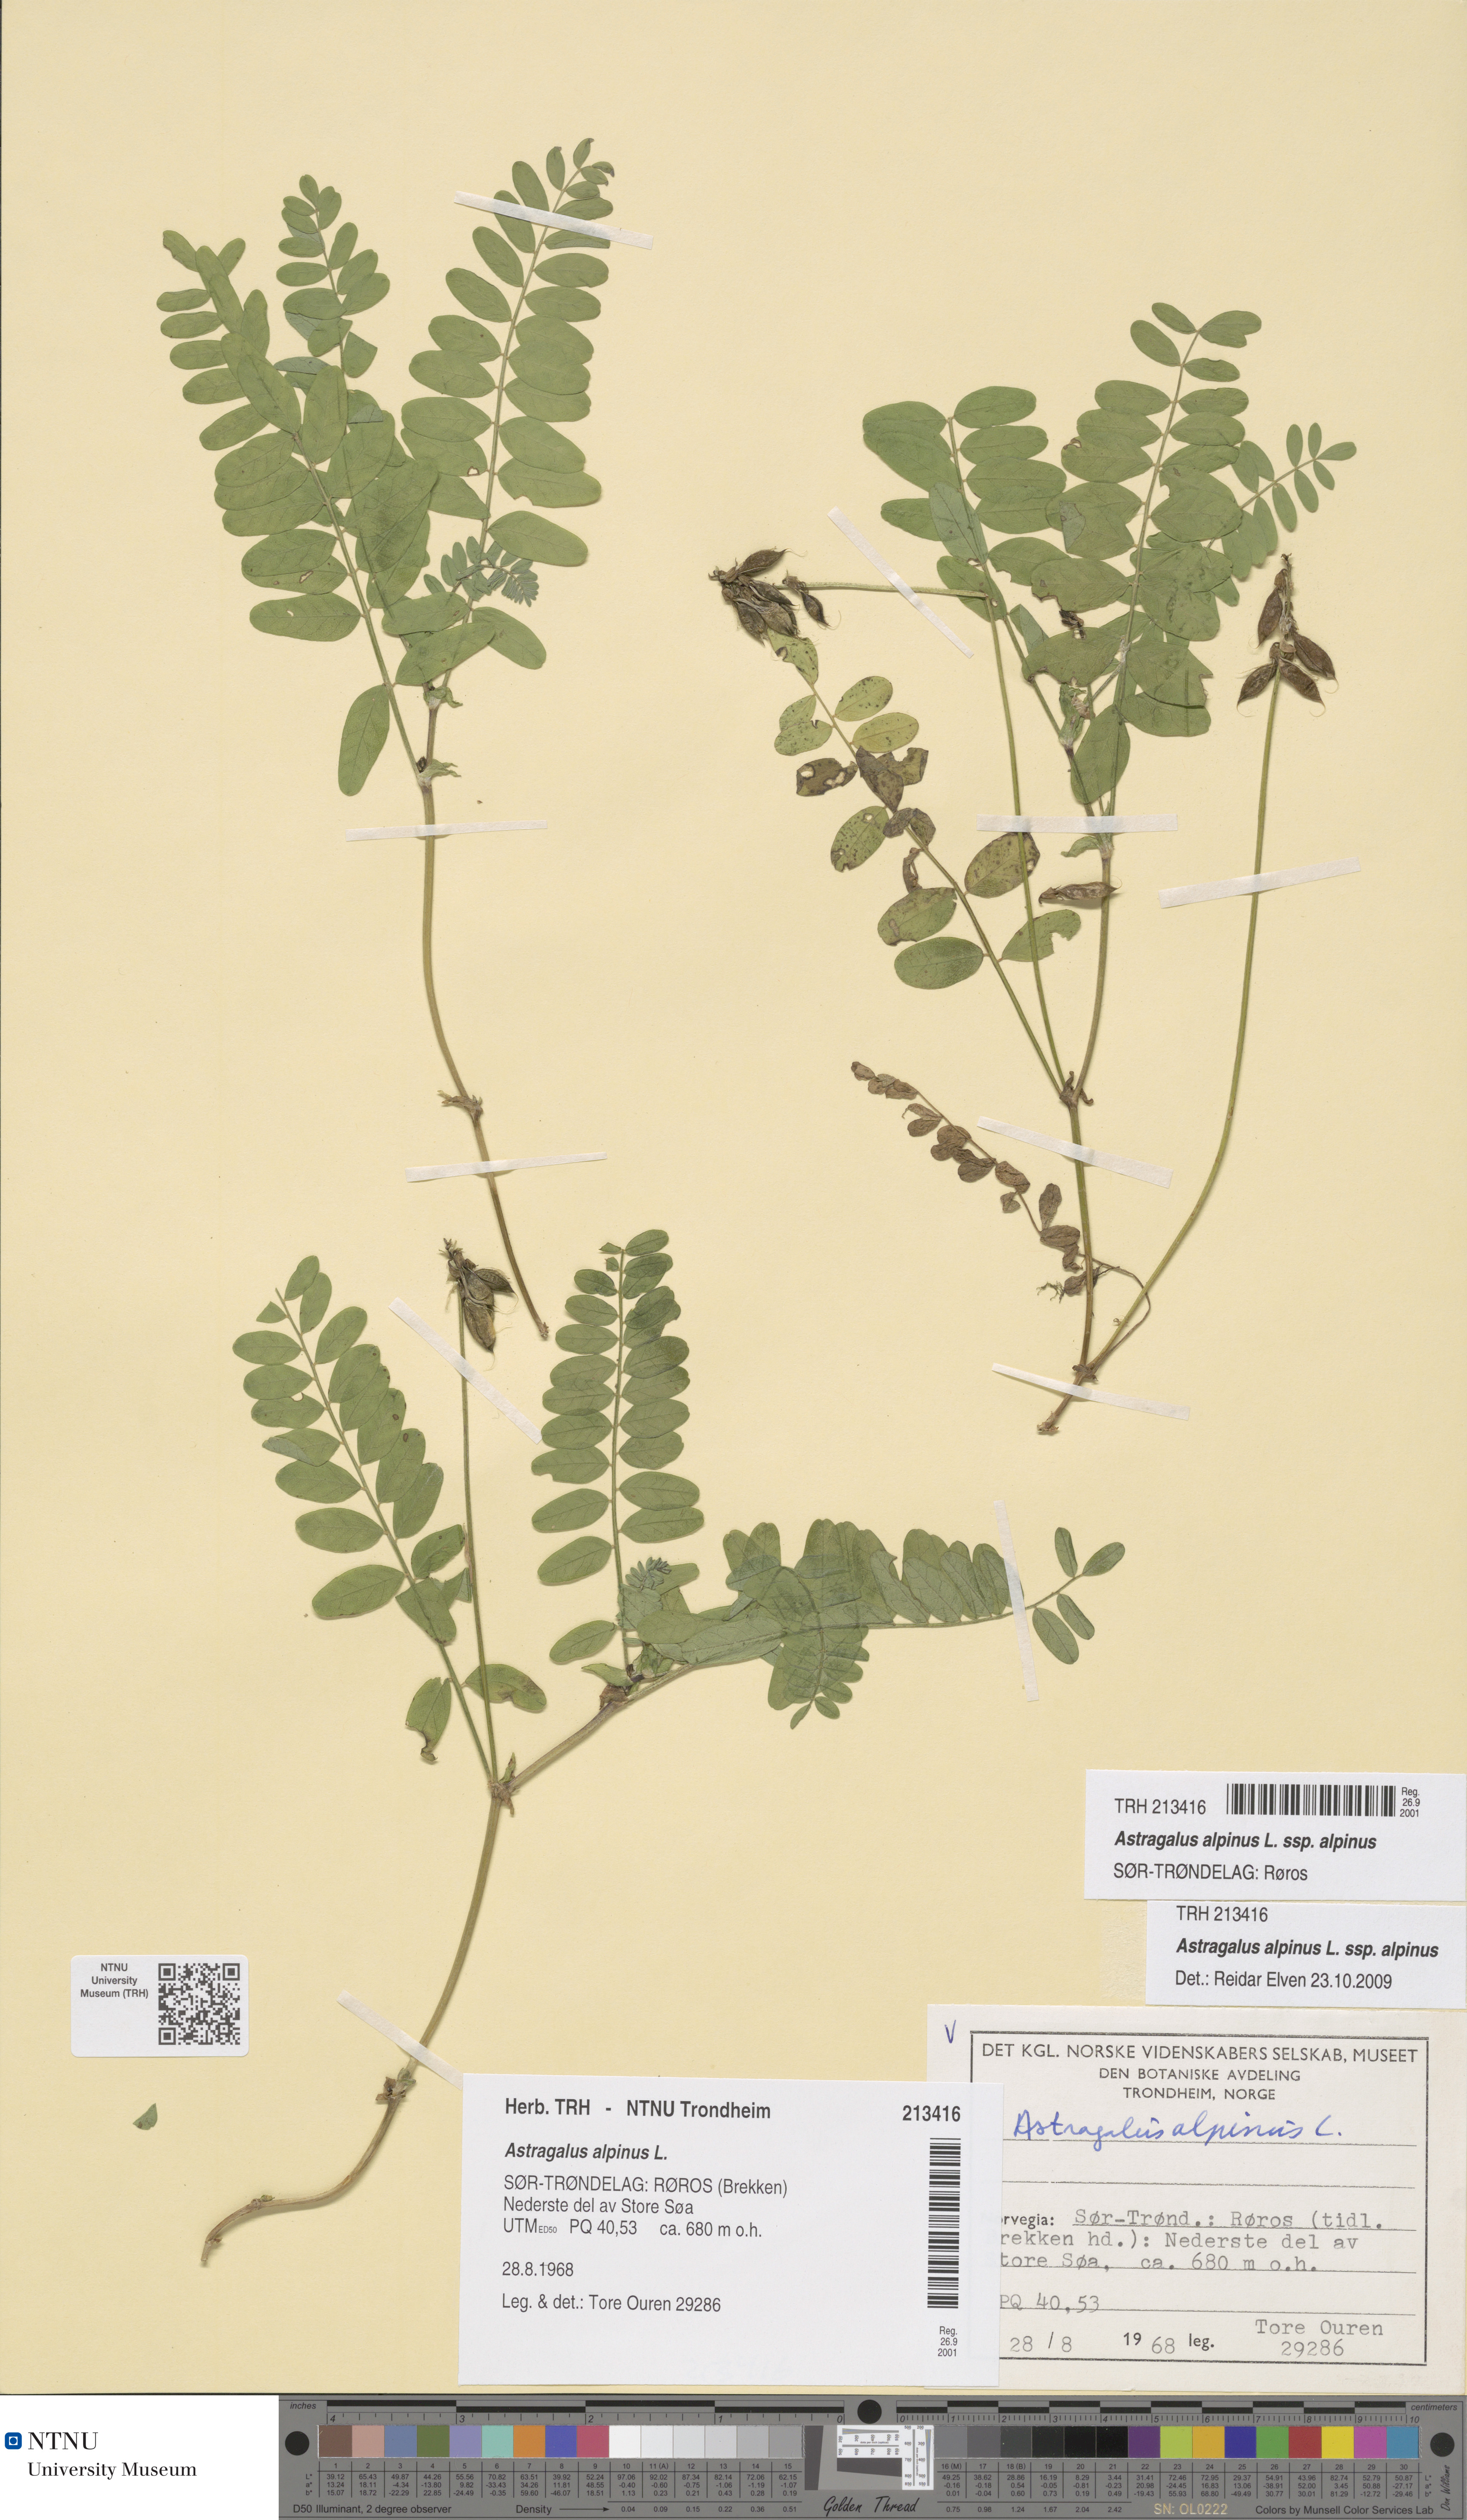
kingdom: Plantae
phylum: Tracheophyta
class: Magnoliopsida
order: Fabales
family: Fabaceae
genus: Astragalus
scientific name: Astragalus alpinus
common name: Alpine milk-vetch
